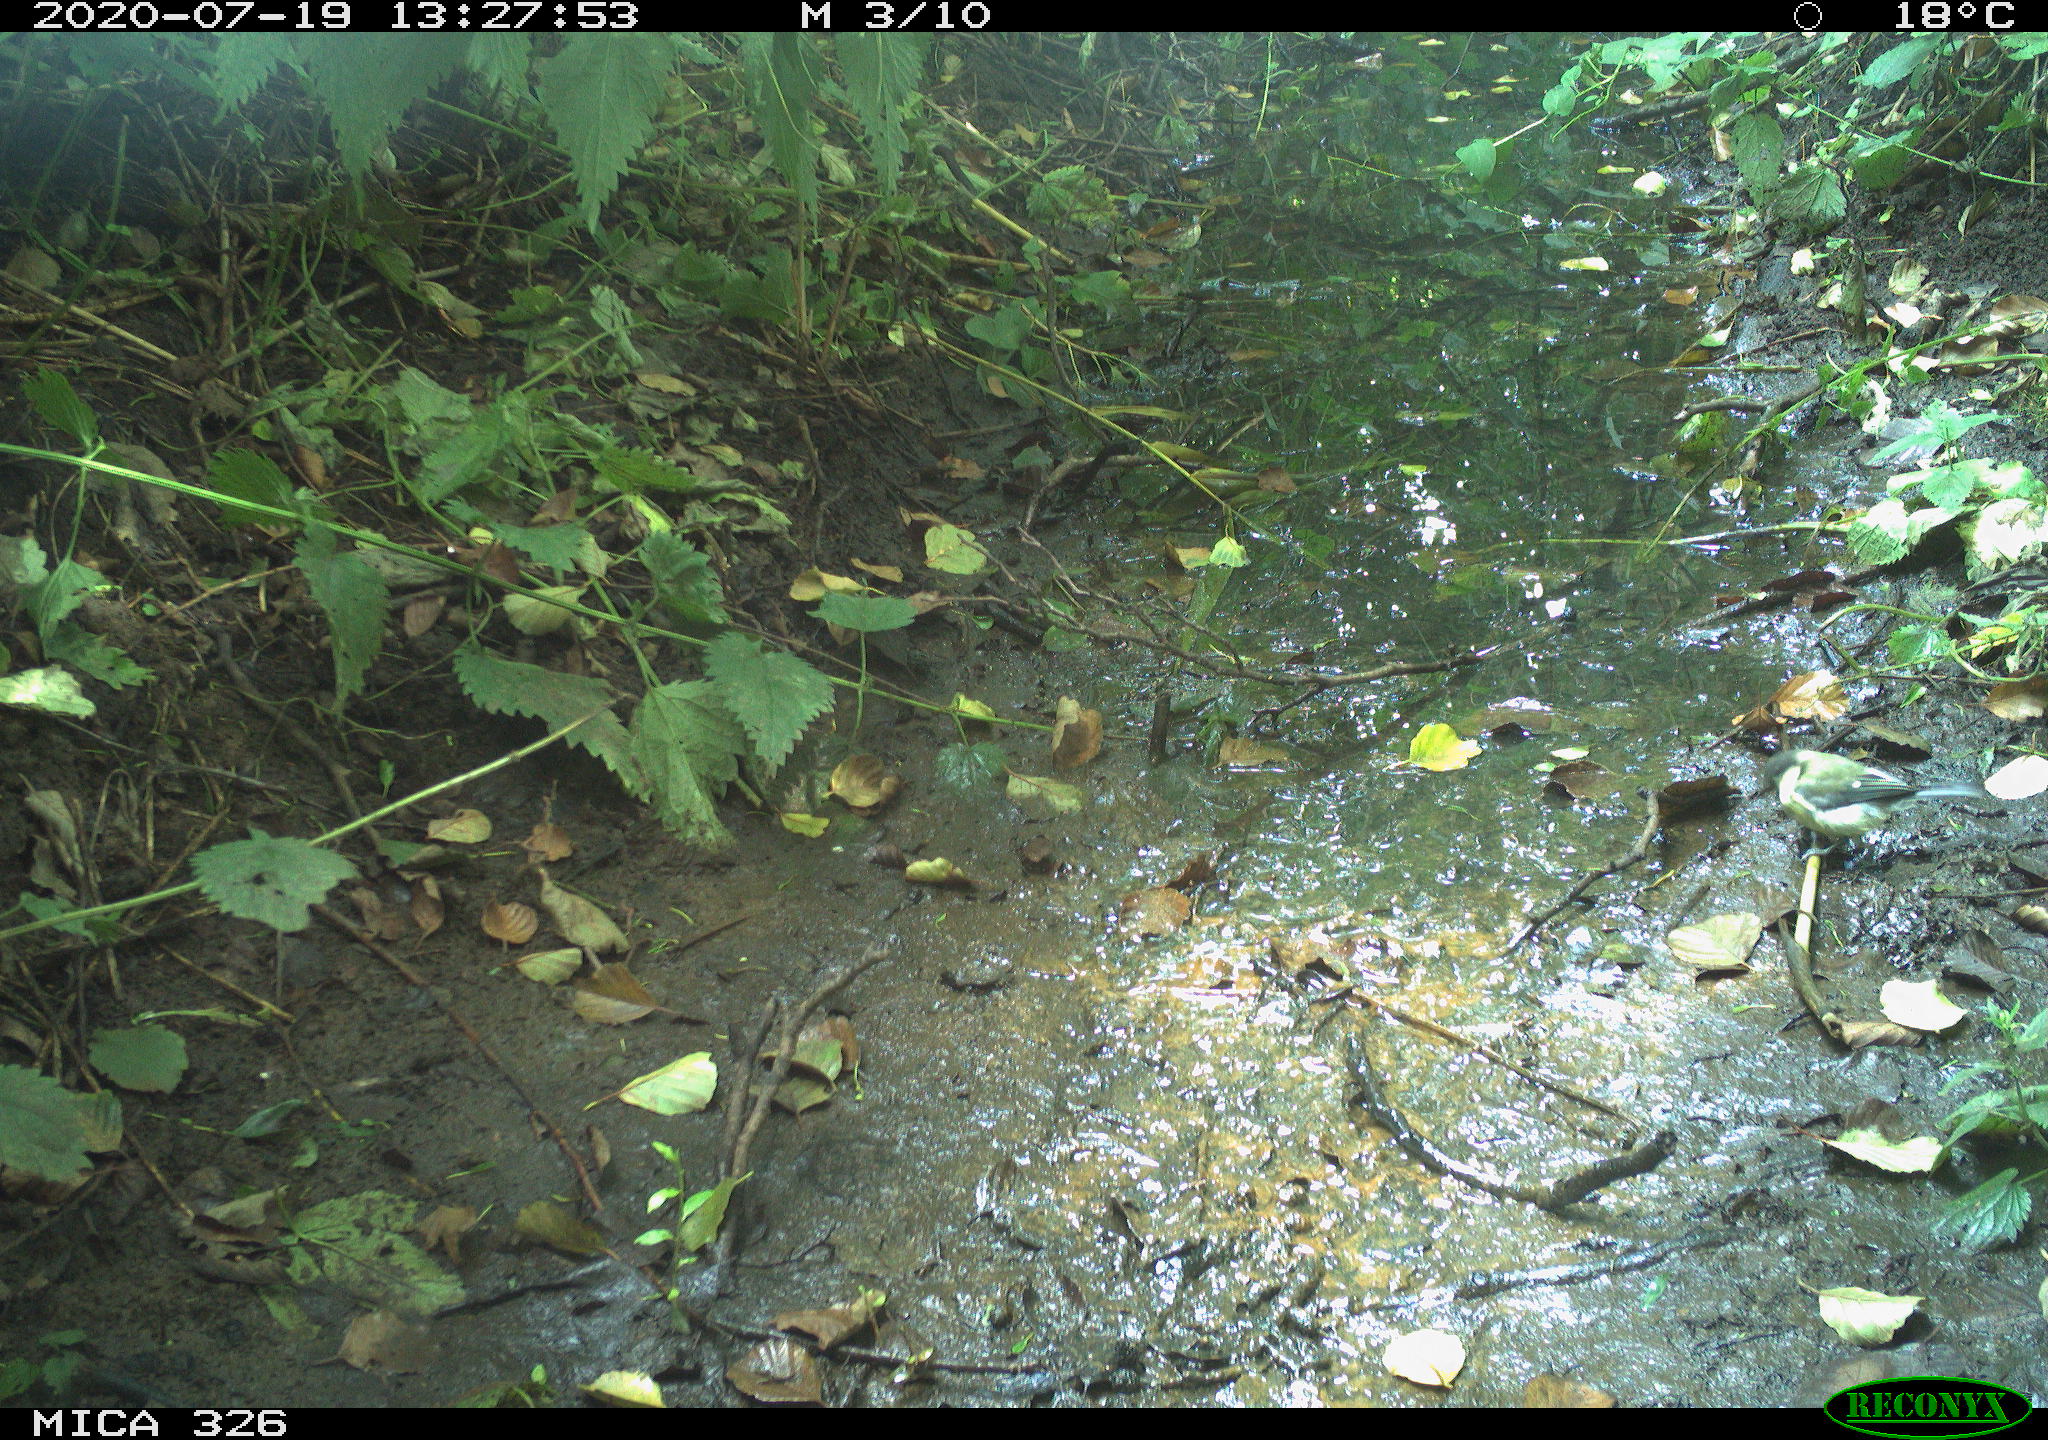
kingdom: Animalia
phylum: Chordata
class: Aves
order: Passeriformes
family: Paridae
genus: Parus
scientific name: Parus major
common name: Great tit
